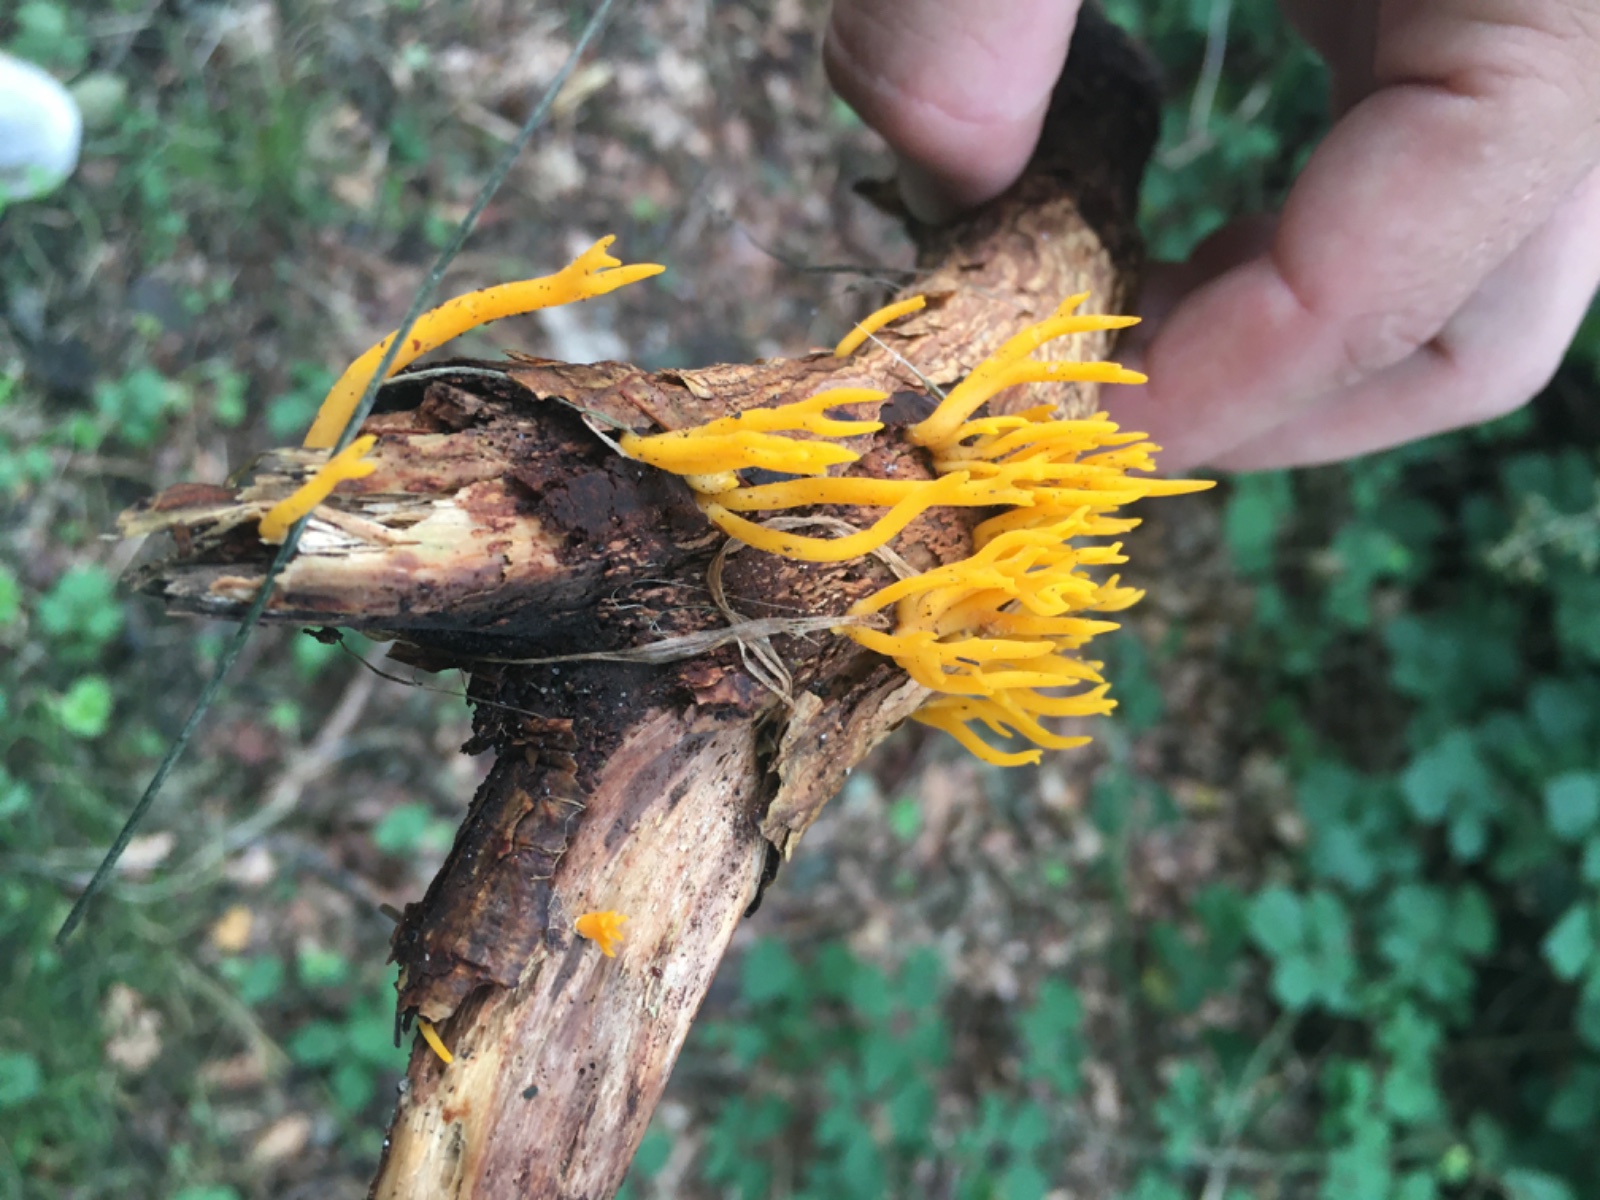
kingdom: Fungi
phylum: Basidiomycota
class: Dacrymycetes
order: Dacrymycetales
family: Dacrymycetaceae
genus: Calocera
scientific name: Calocera viscosa
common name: almindelig guldgaffel
